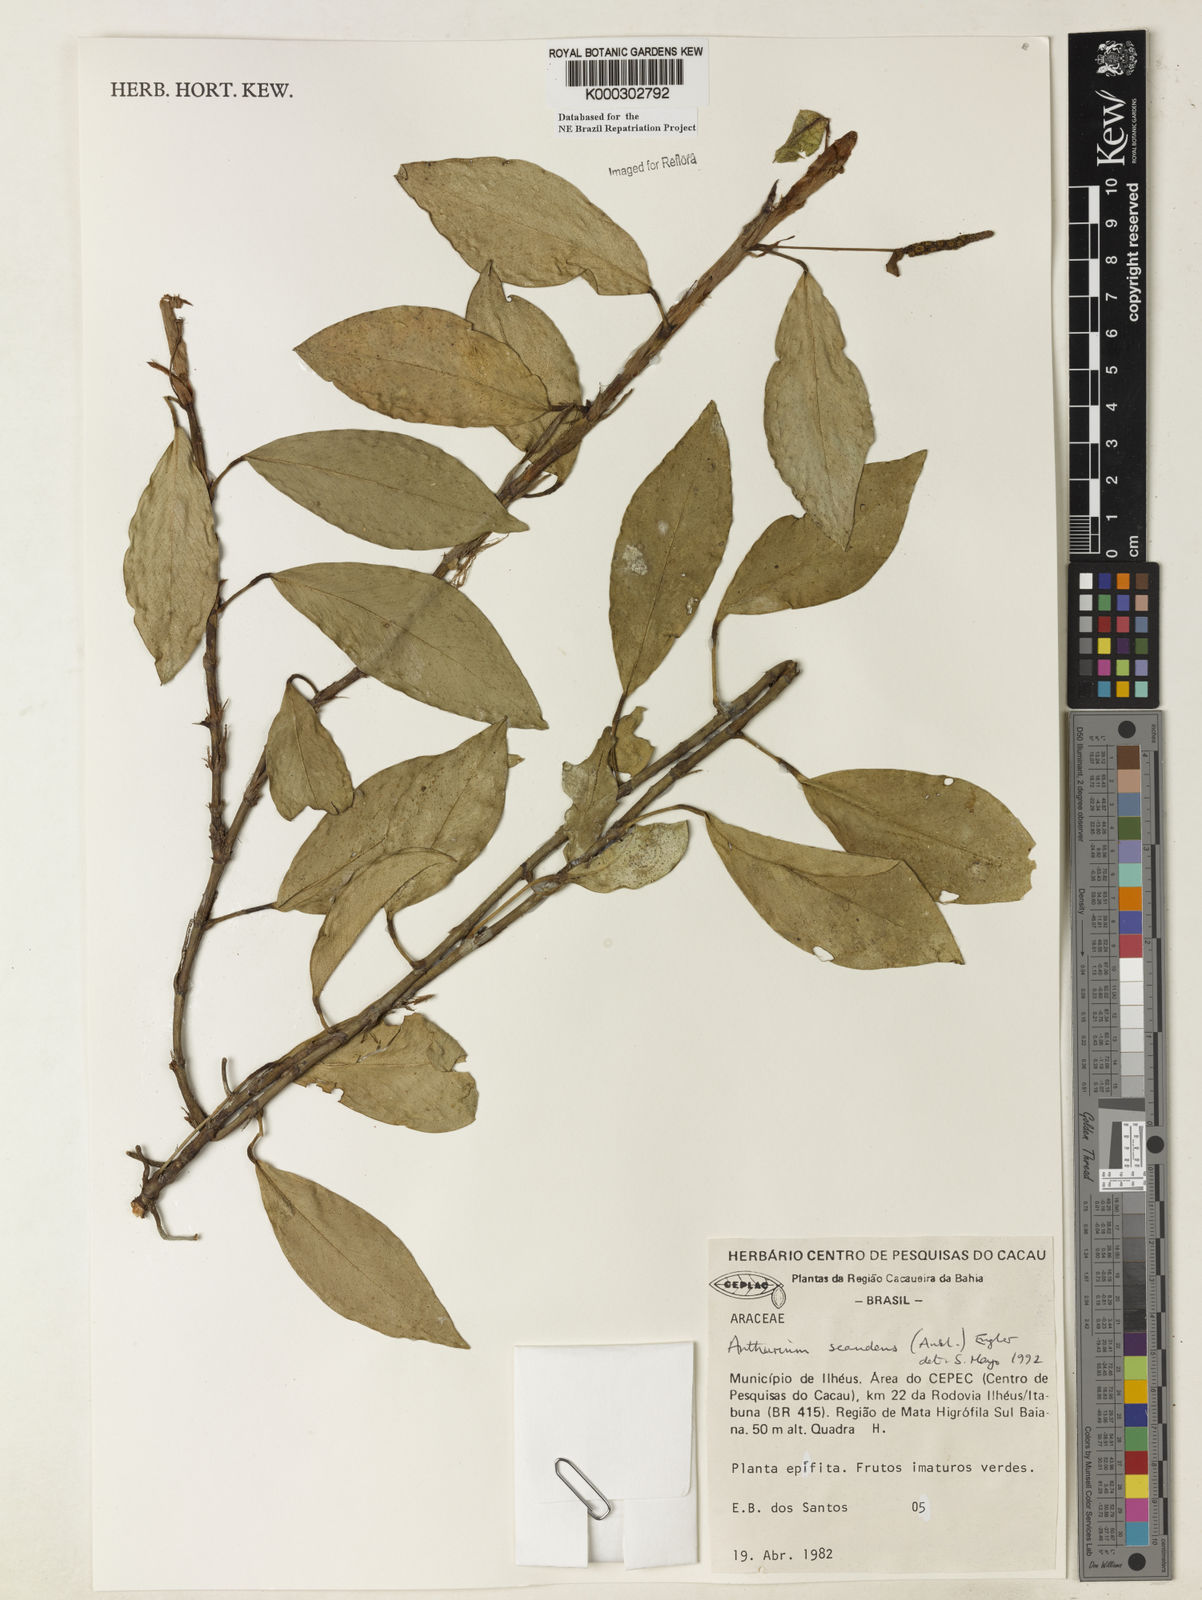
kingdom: Plantae
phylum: Tracheophyta
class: Liliopsida
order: Alismatales
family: Araceae
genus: Anthurium
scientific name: Anthurium scandens
